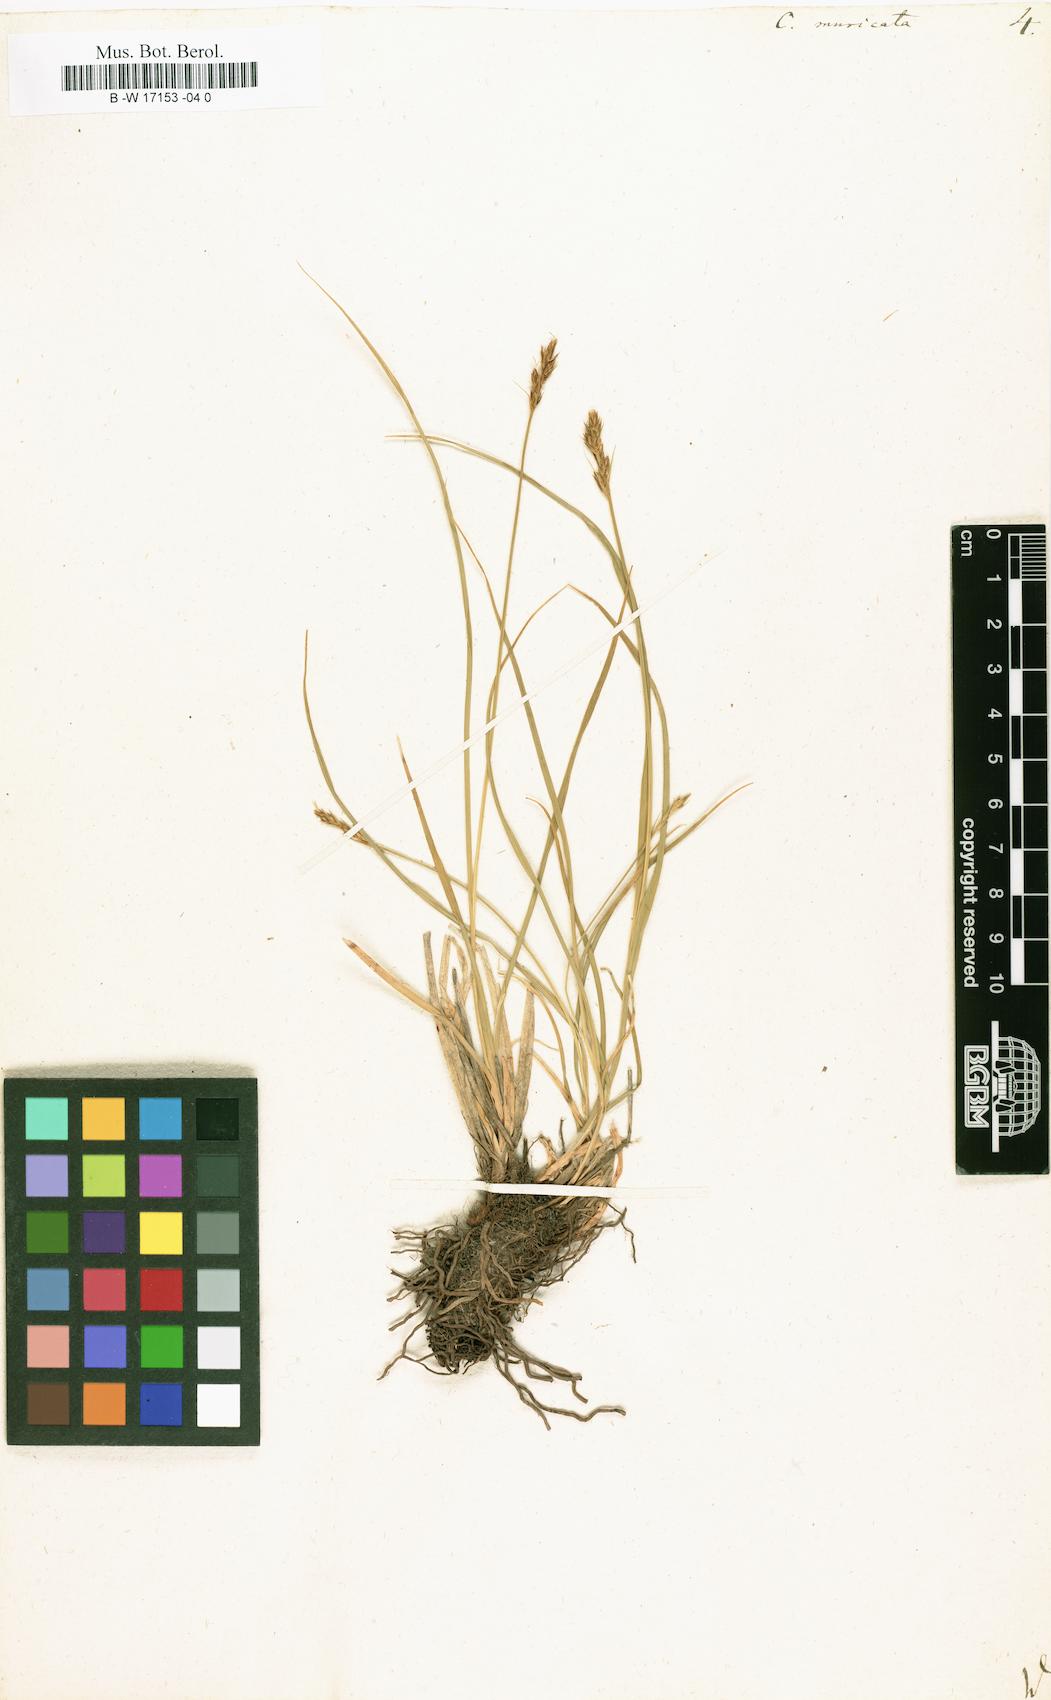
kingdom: Plantae
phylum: Tracheophyta
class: Liliopsida
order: Poales
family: Cyperaceae
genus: Carex
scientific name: Carex muricata
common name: Rough sedge
